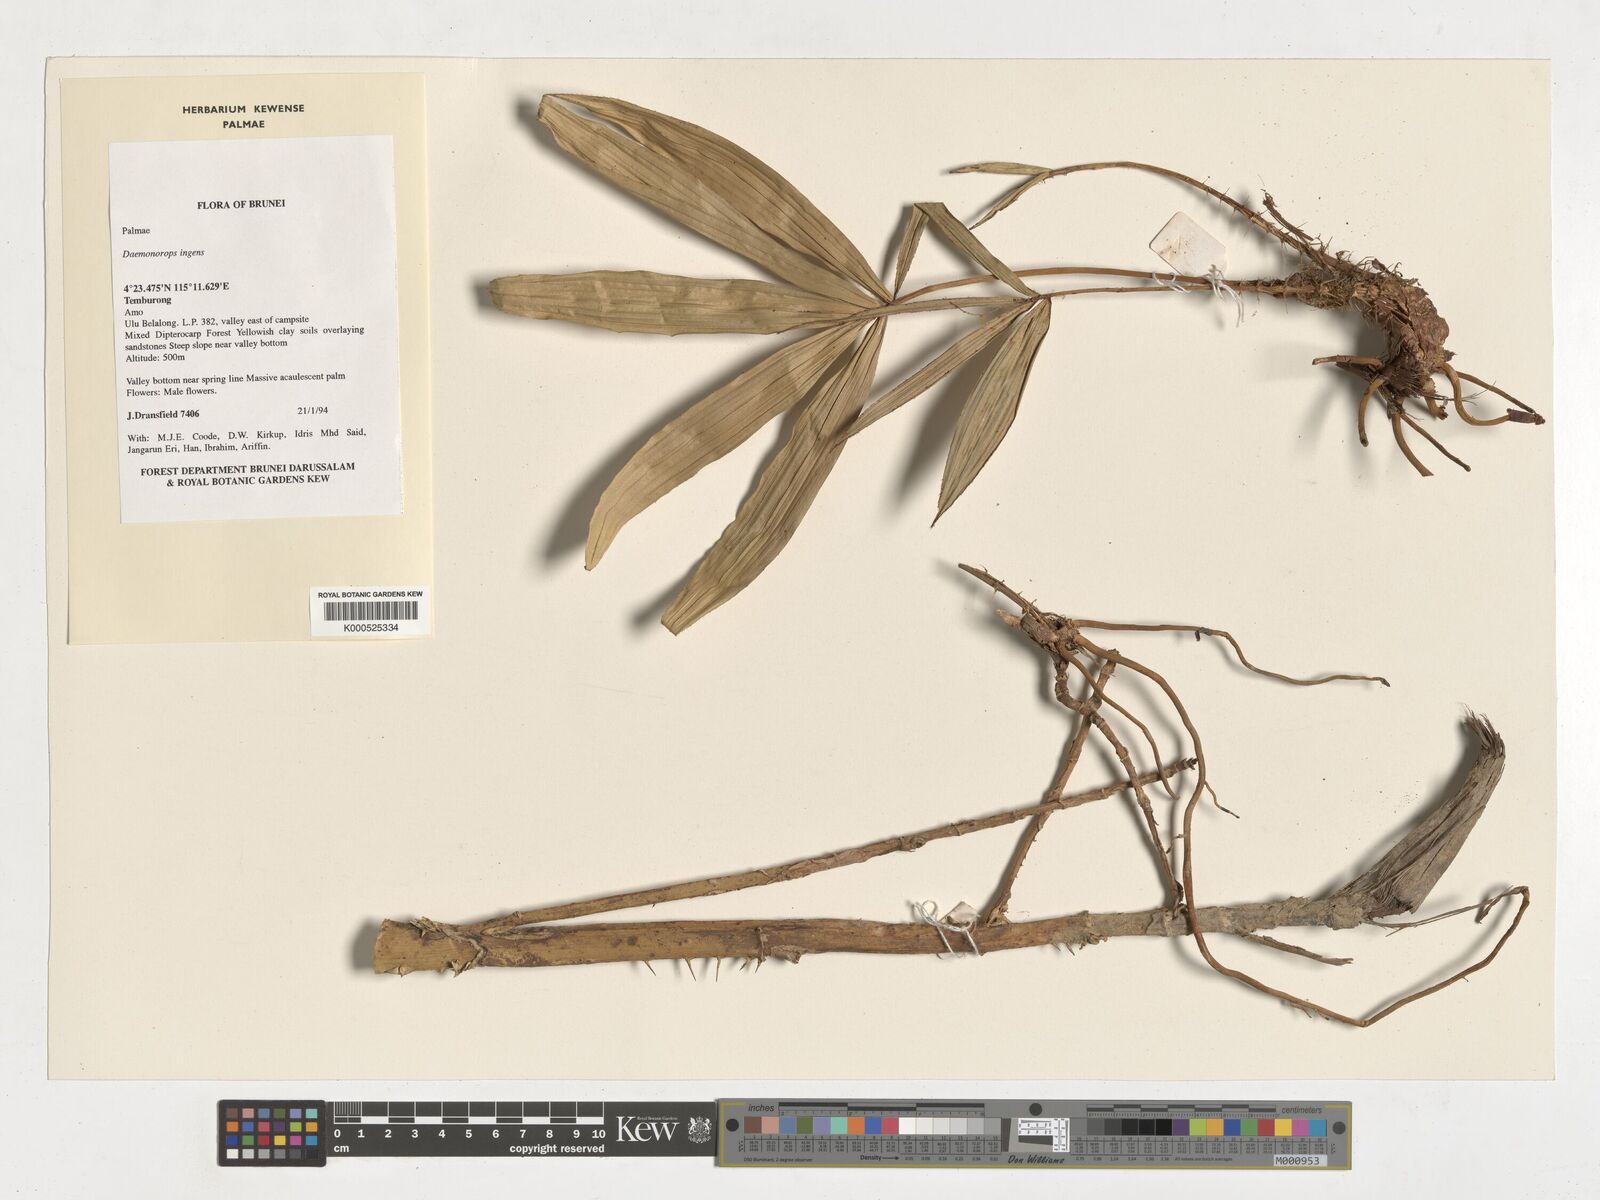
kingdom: Plantae
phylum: Tracheophyta
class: Liliopsida
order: Arecales
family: Arecaceae
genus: Calamus
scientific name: Calamus ingens
